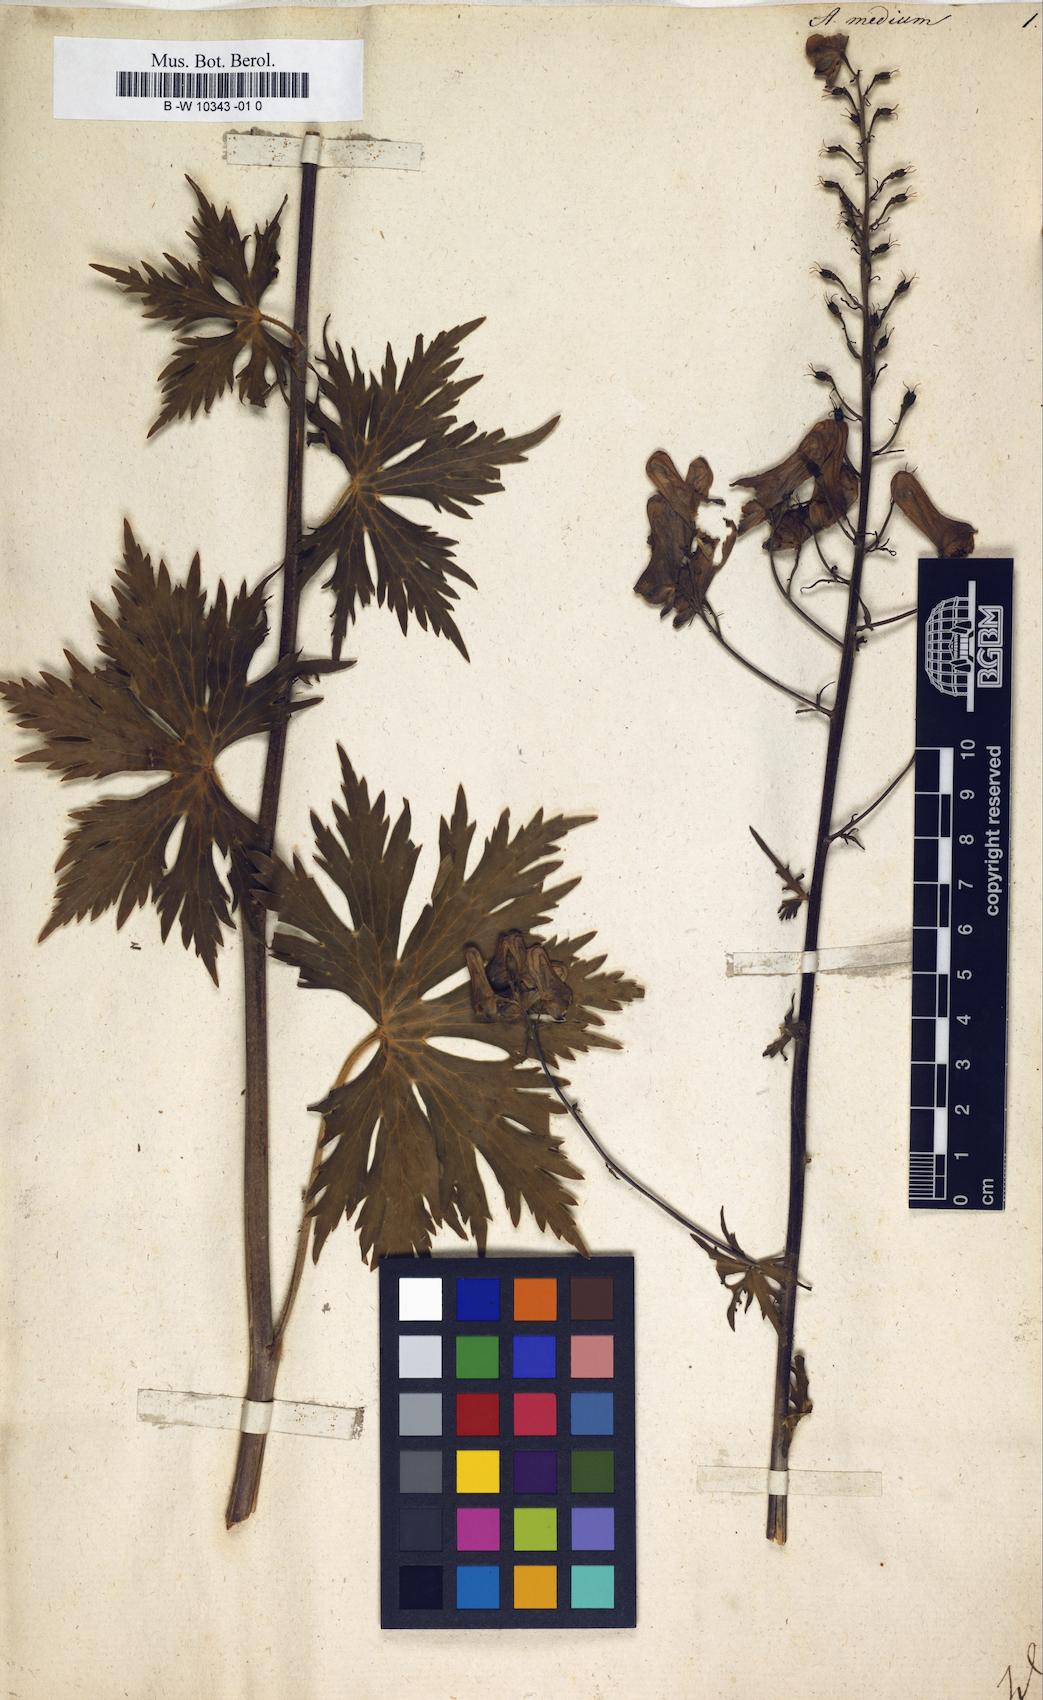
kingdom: Plantae
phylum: Tracheophyta
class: Magnoliopsida
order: Ranunculales
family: Ranunculaceae
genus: Aconitum
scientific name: Aconitum cammarum
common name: Hybrid monk's-hood
